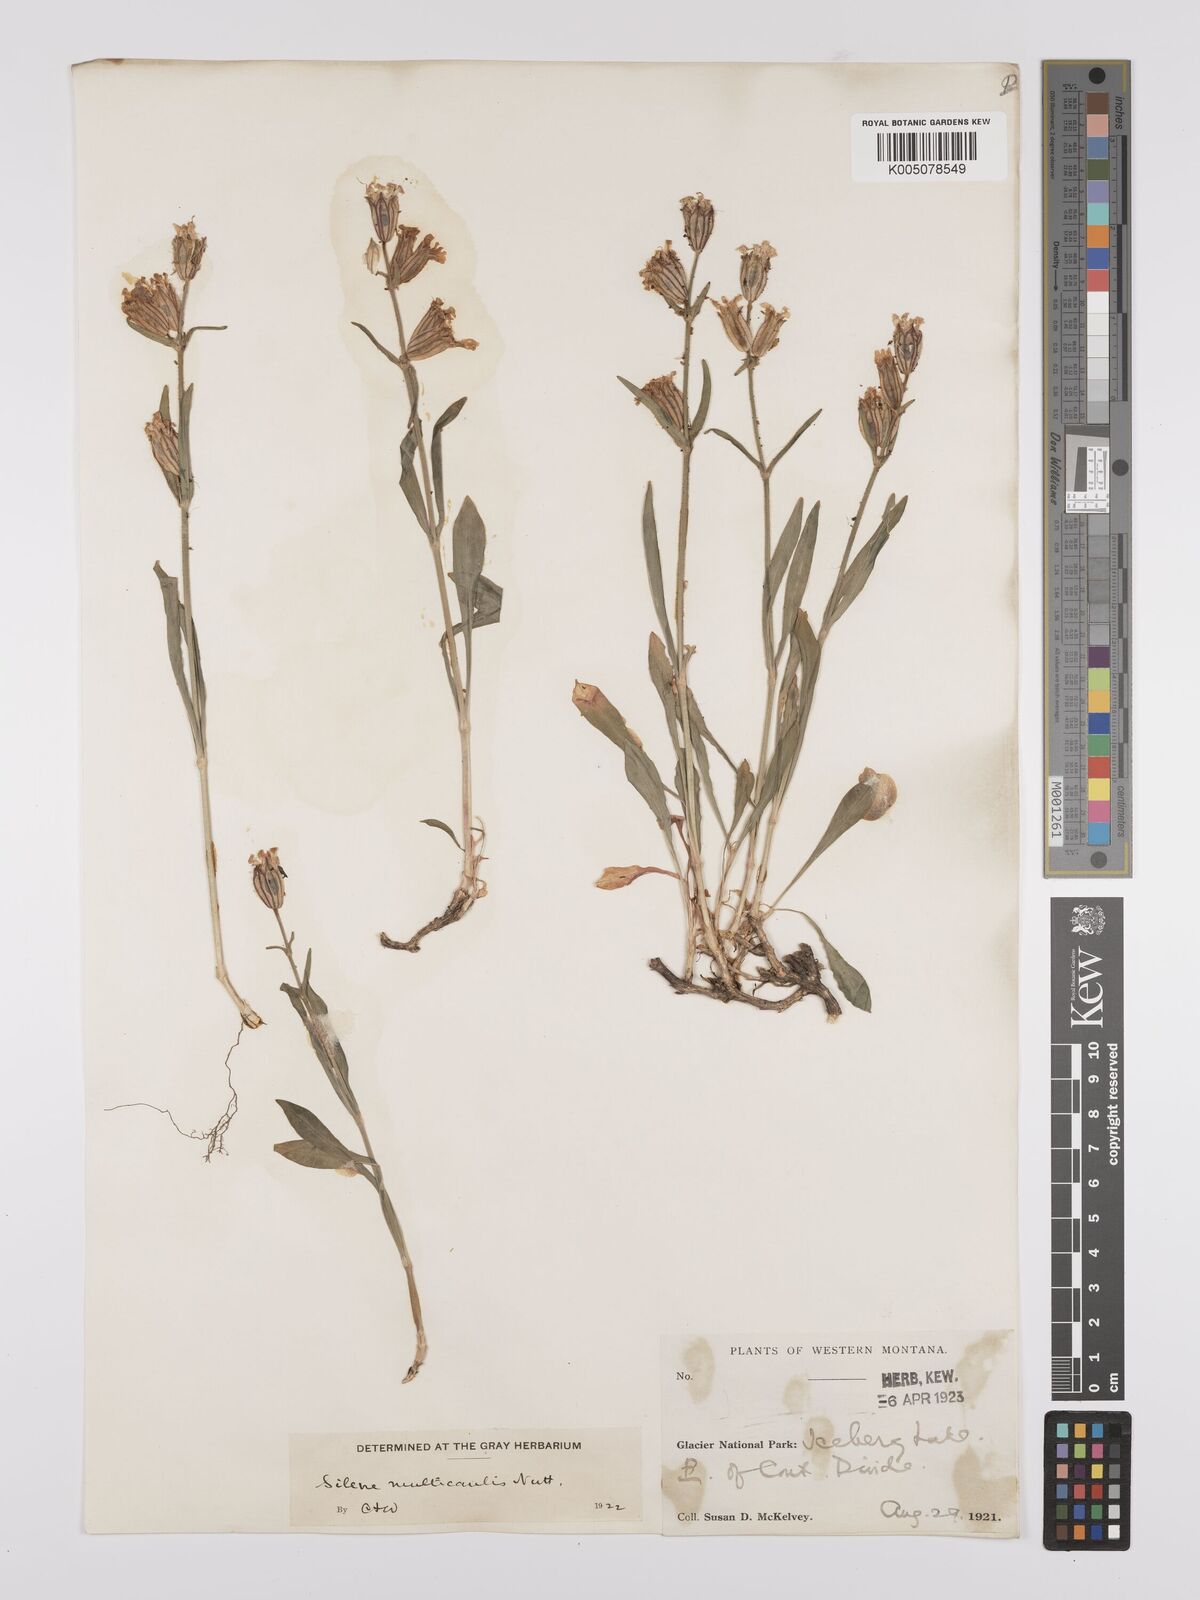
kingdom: Plantae
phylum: Tracheophyta
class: Magnoliopsida
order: Caryophyllales
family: Caryophyllaceae
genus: Silene
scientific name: Silene parryi
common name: Parry's campion
